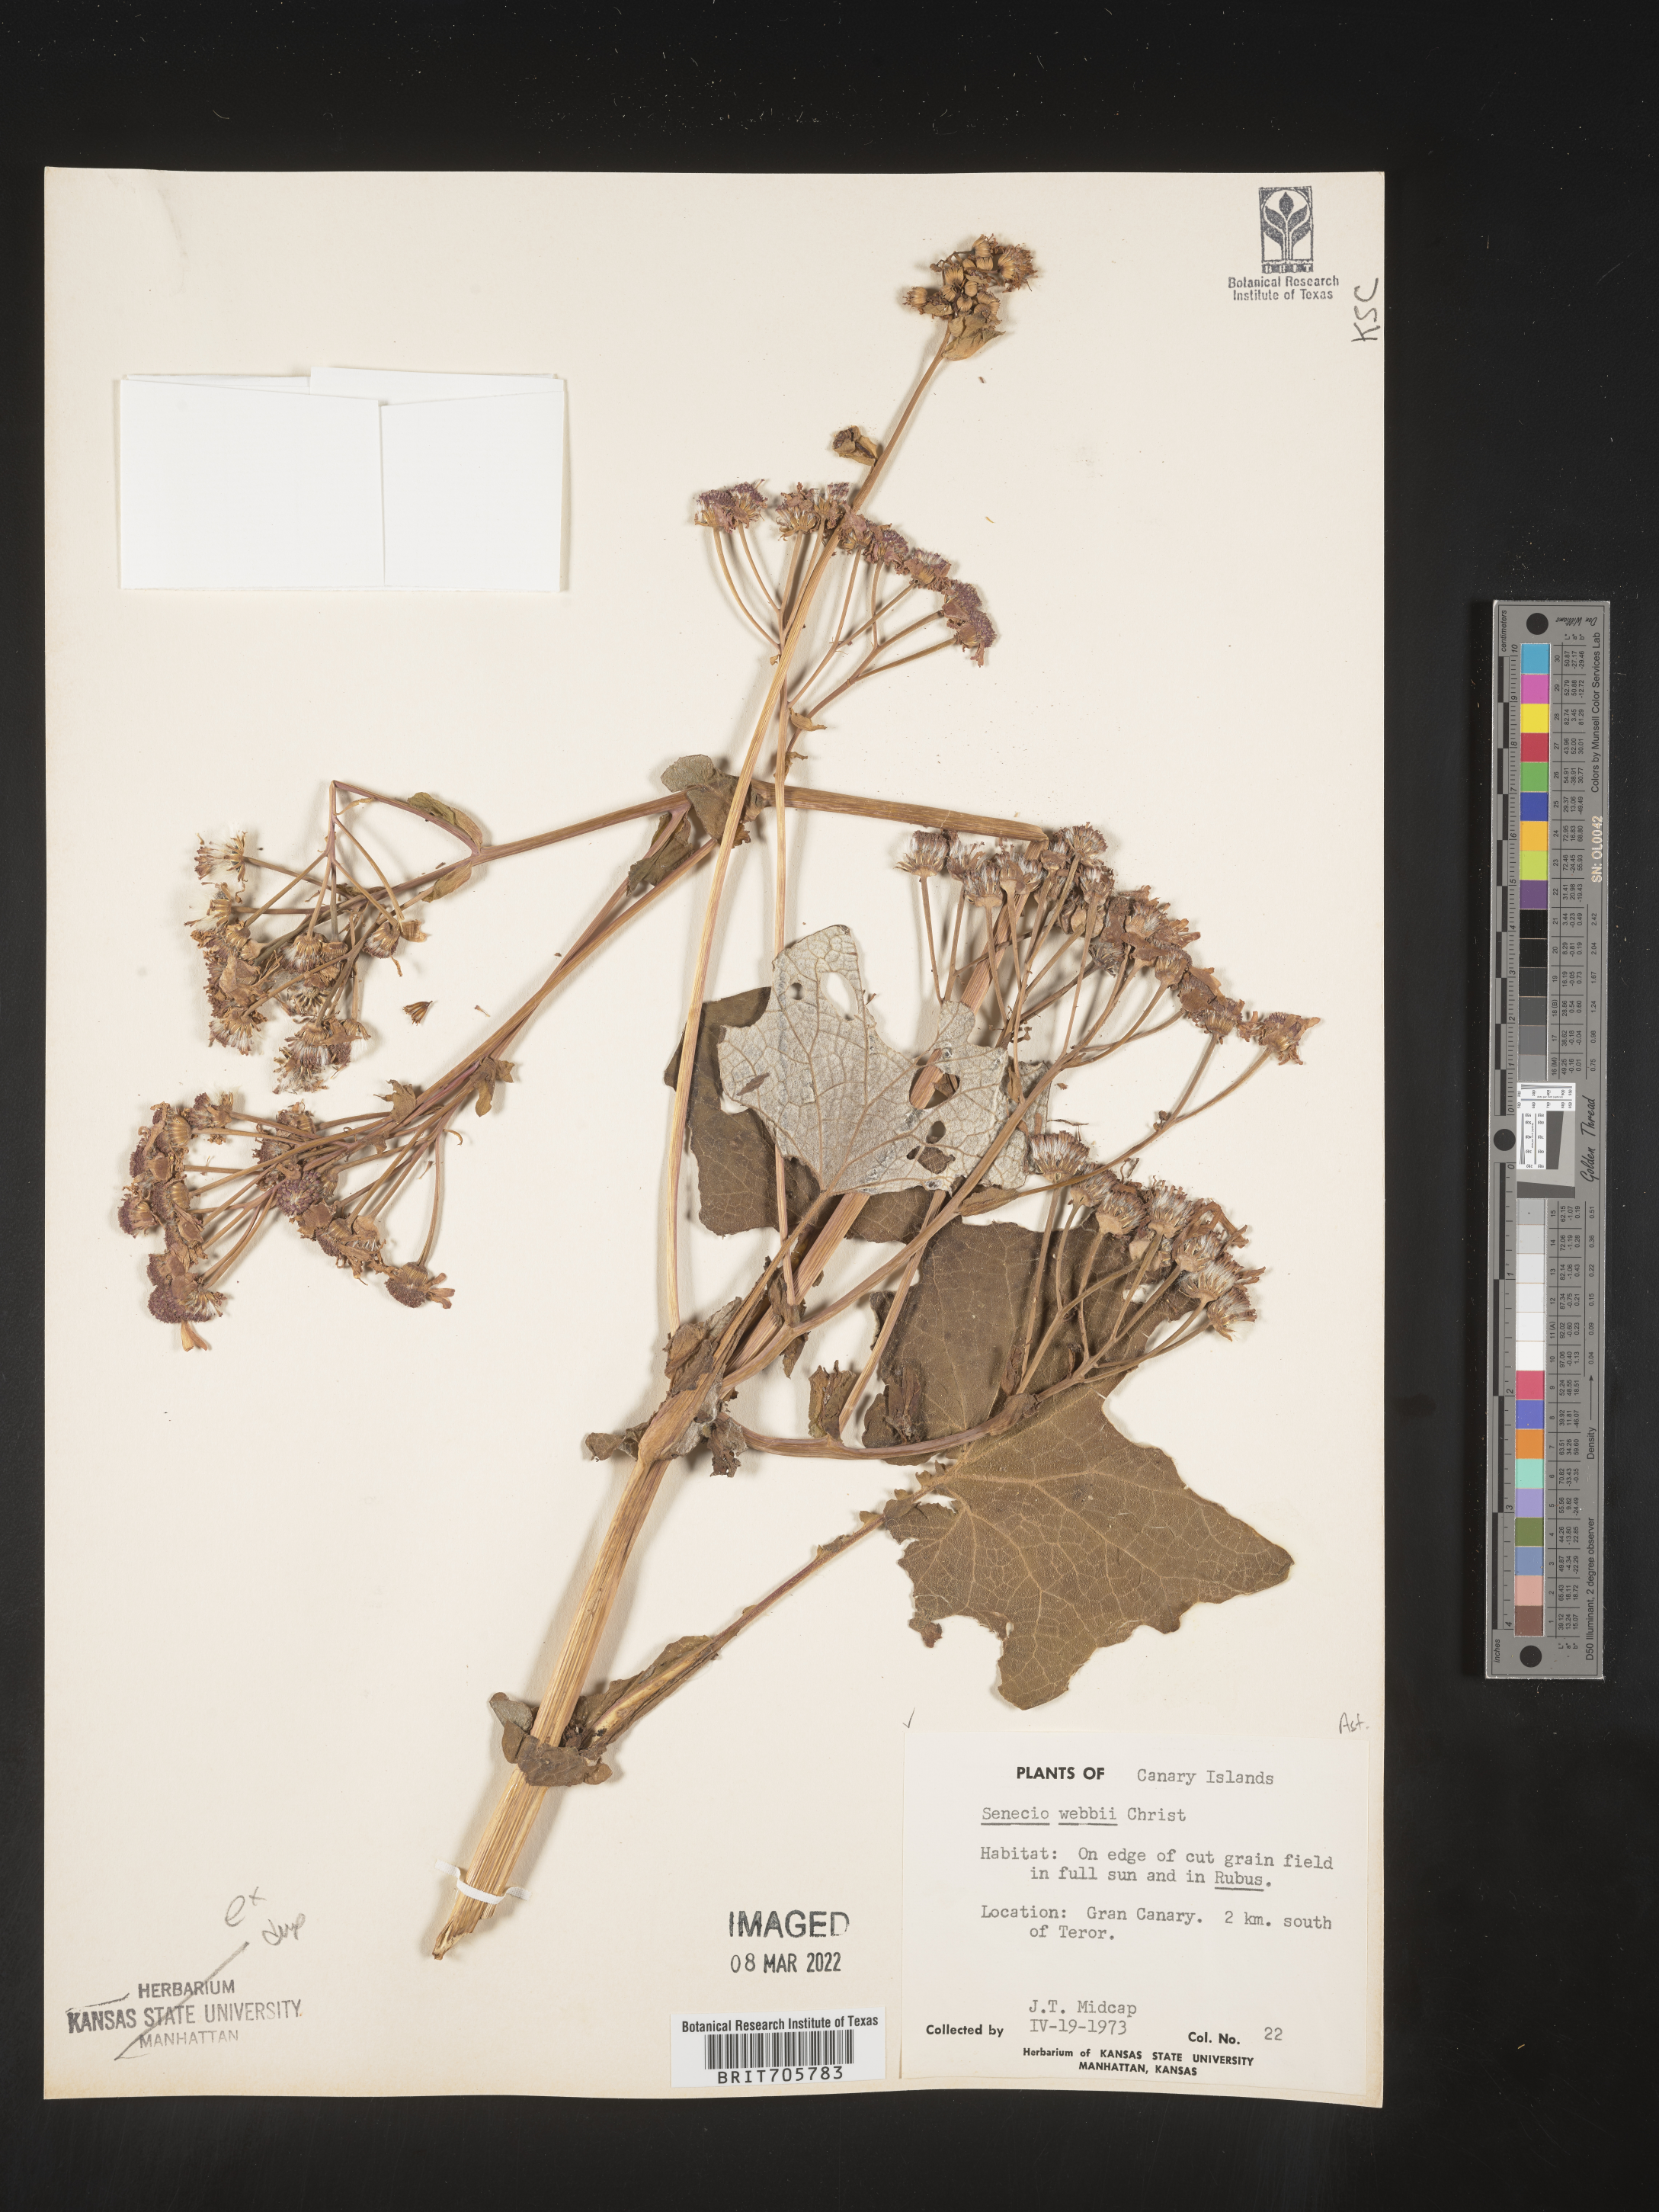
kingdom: Plantae
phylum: Tracheophyta
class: Magnoliopsida
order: Asterales
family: Asteraceae
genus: Senecio
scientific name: Senecio
